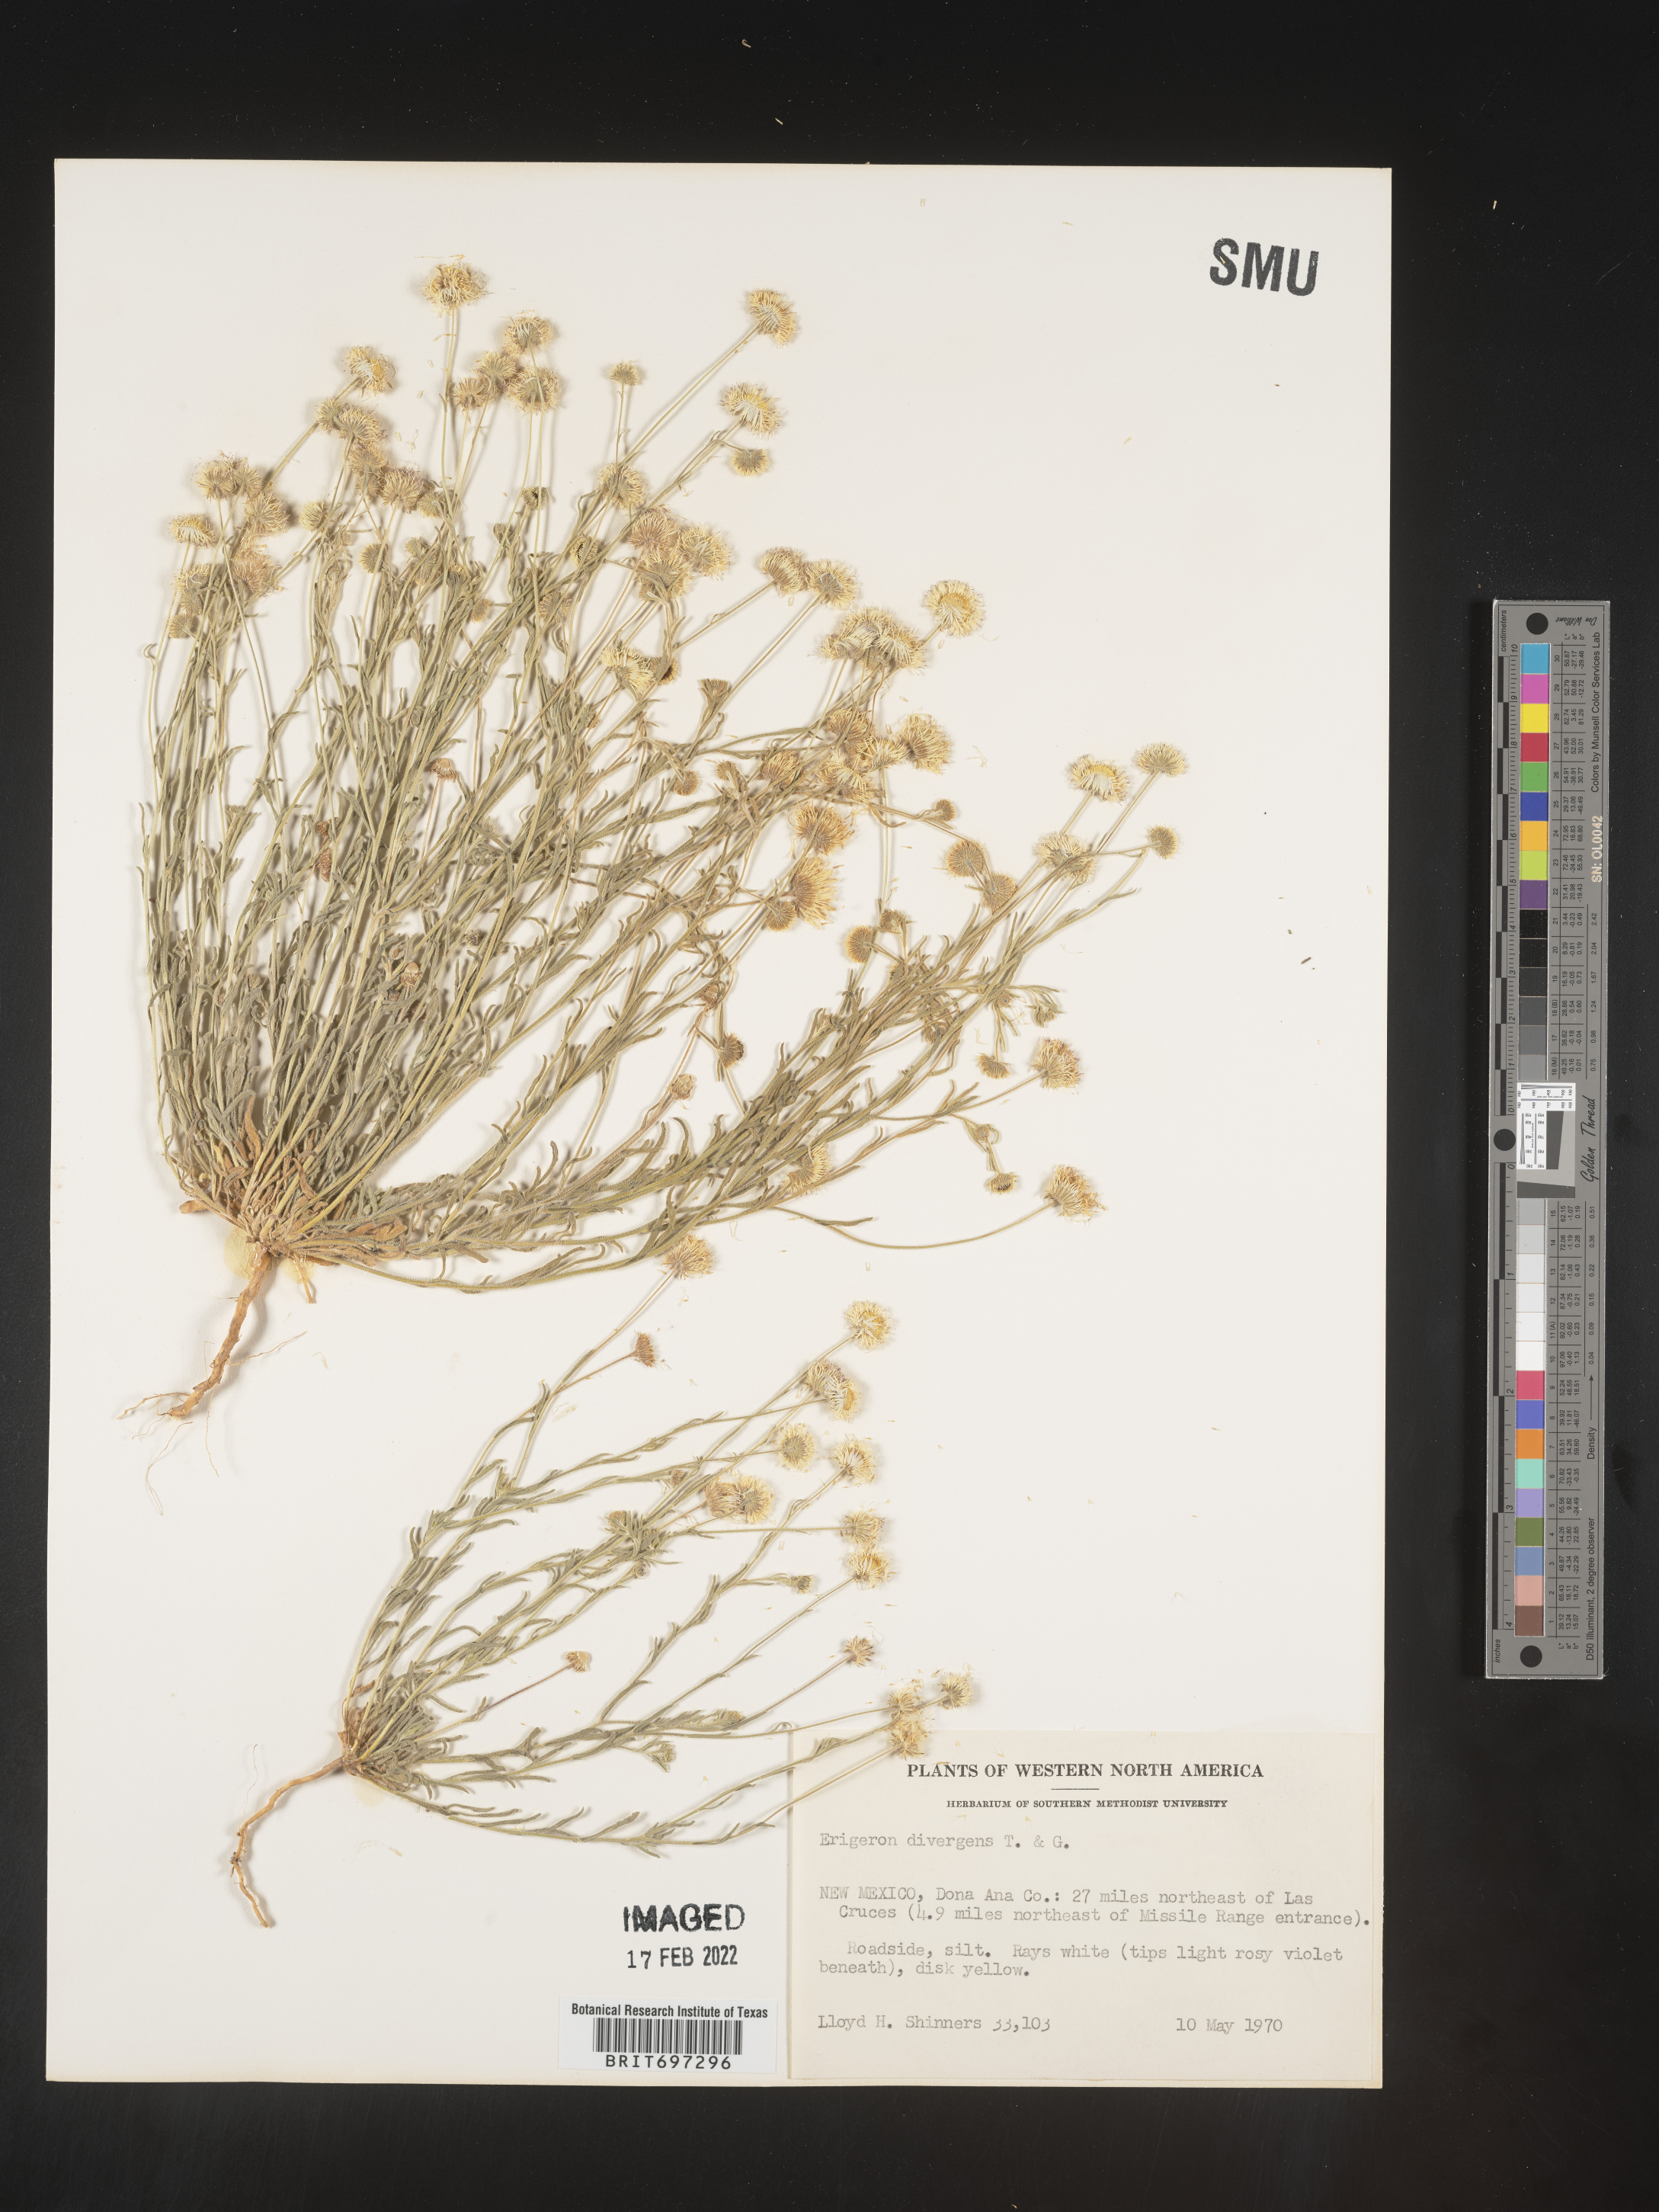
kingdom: Plantae
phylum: Tracheophyta
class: Magnoliopsida
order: Asterales
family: Asteraceae
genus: Erigeron
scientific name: Erigeron divergens
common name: Diffuse fleabane
